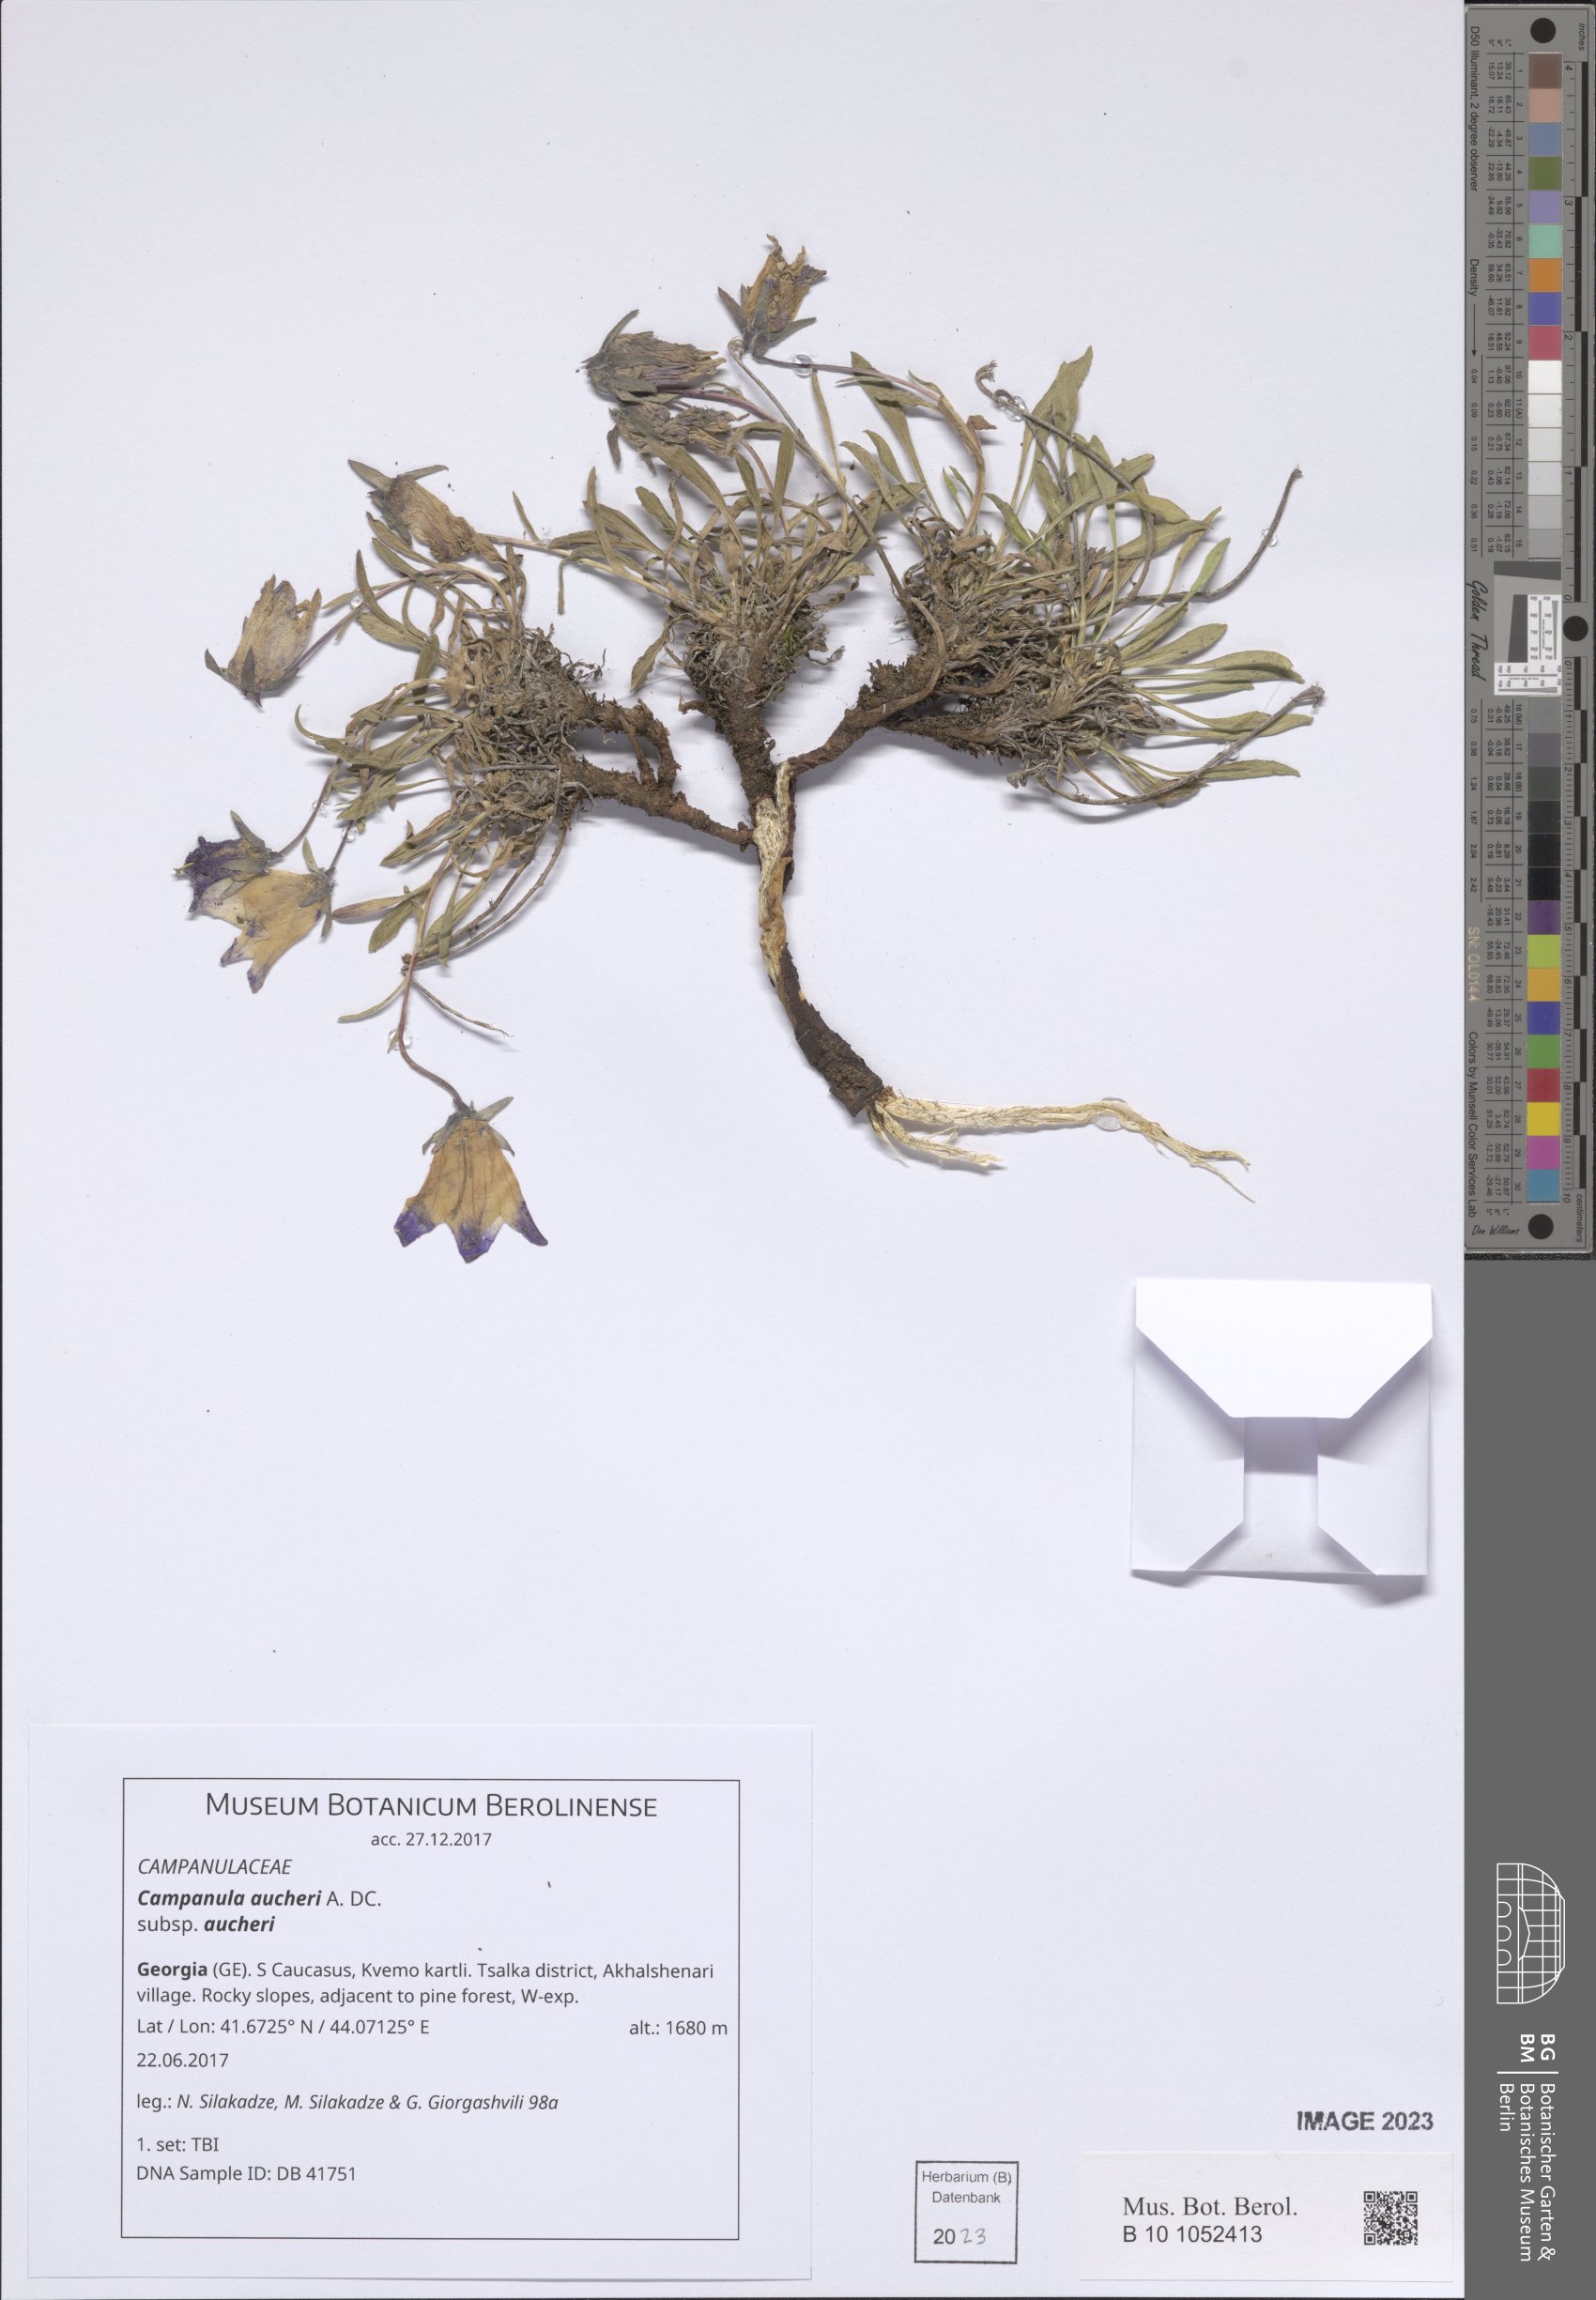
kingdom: Plantae
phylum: Tracheophyta
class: Magnoliopsida
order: Asterales
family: Campanulaceae
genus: Campanula
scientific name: Campanula saxifraga
